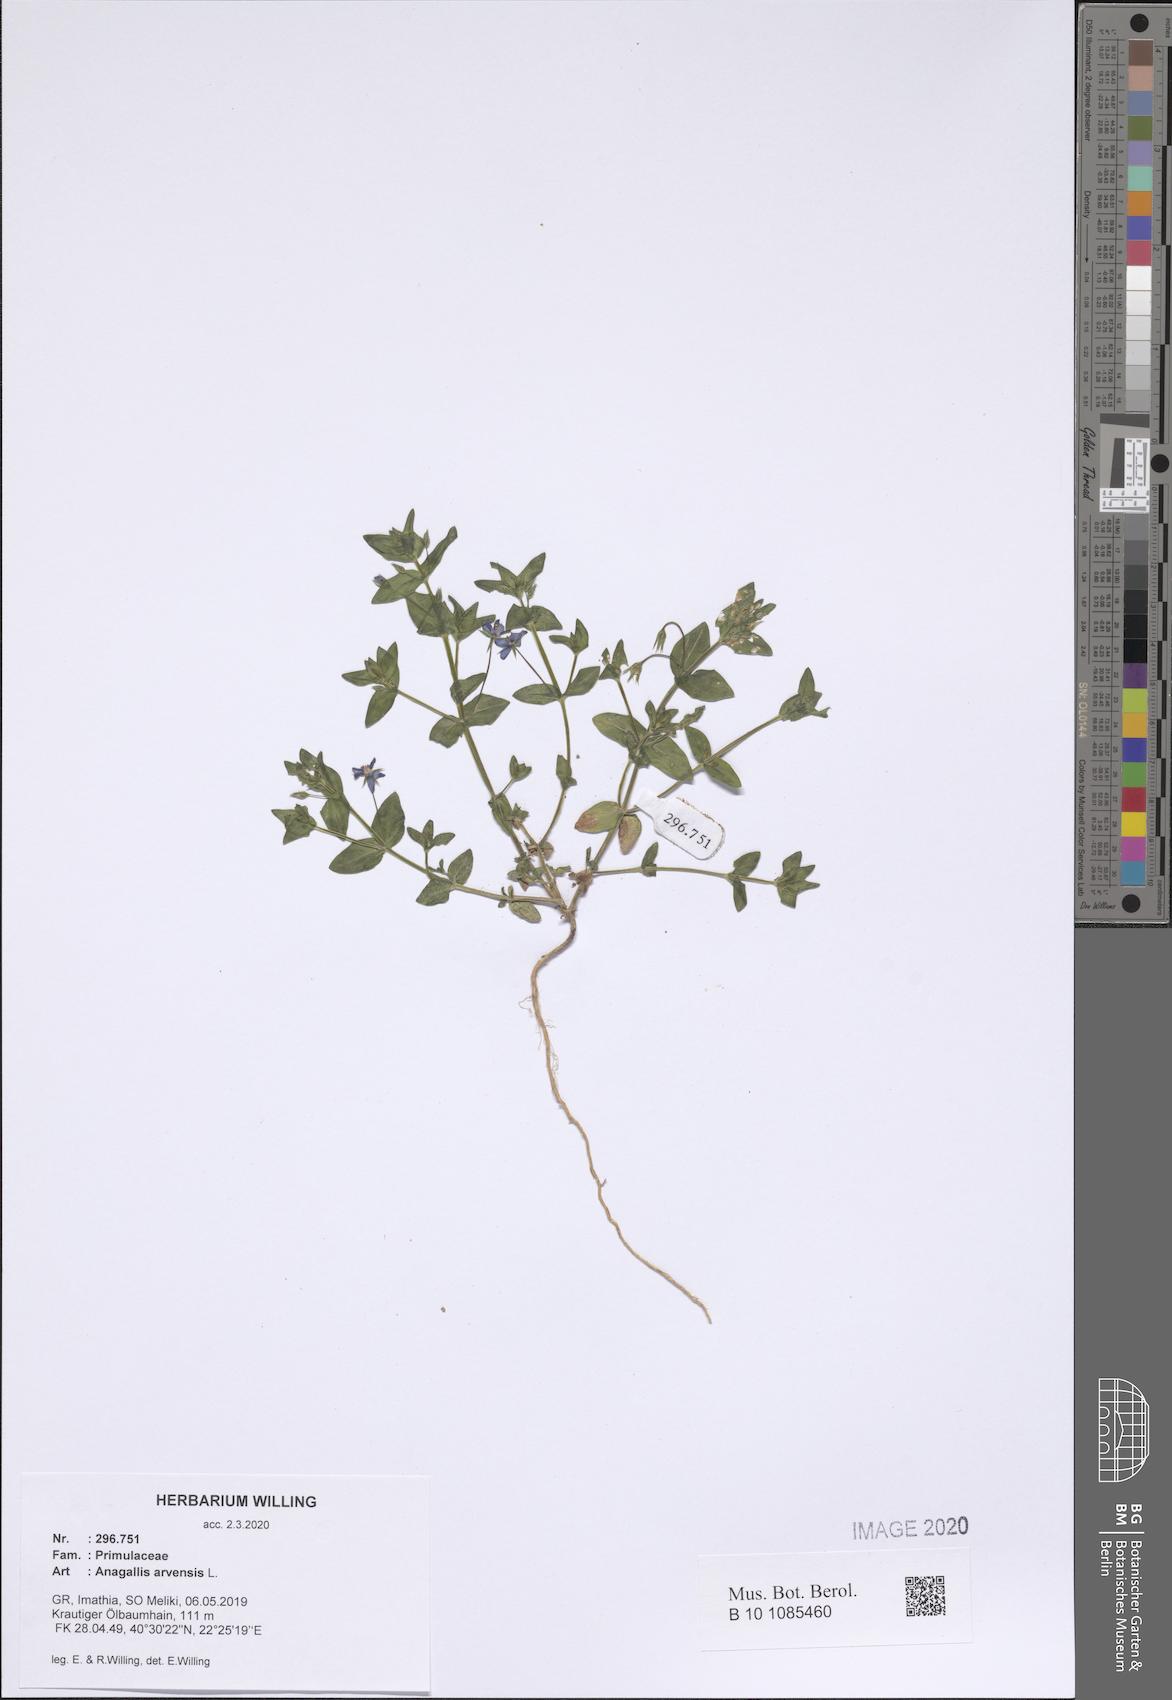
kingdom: Plantae
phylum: Tracheophyta
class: Magnoliopsida
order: Ericales
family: Primulaceae
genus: Lysimachia
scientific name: Lysimachia arvensis
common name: Scarlet pimpernel
